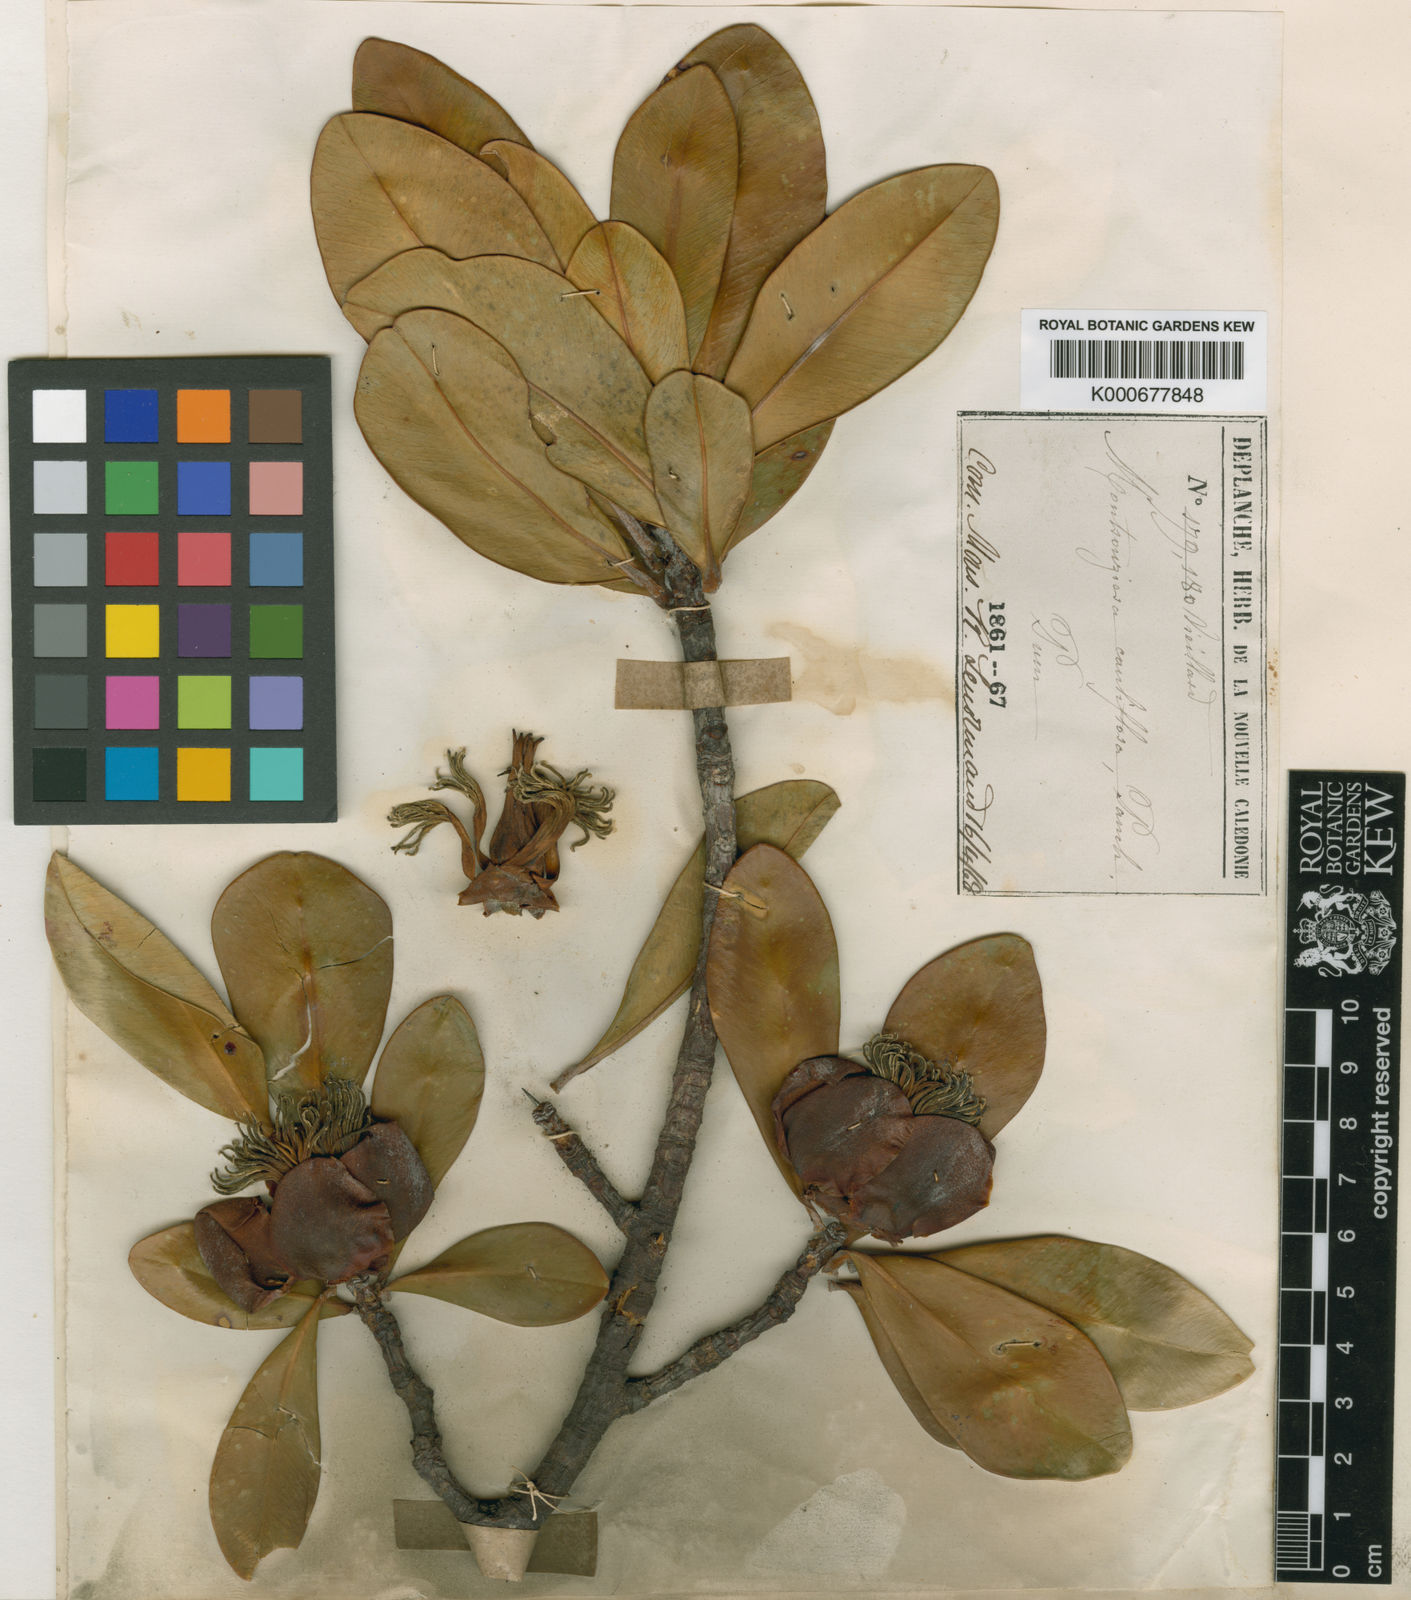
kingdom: Plantae
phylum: Tracheophyta
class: Magnoliopsida
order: Malpighiales
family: Clusiaceae
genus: Montrouziera
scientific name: Montrouziera sphaeroidea
